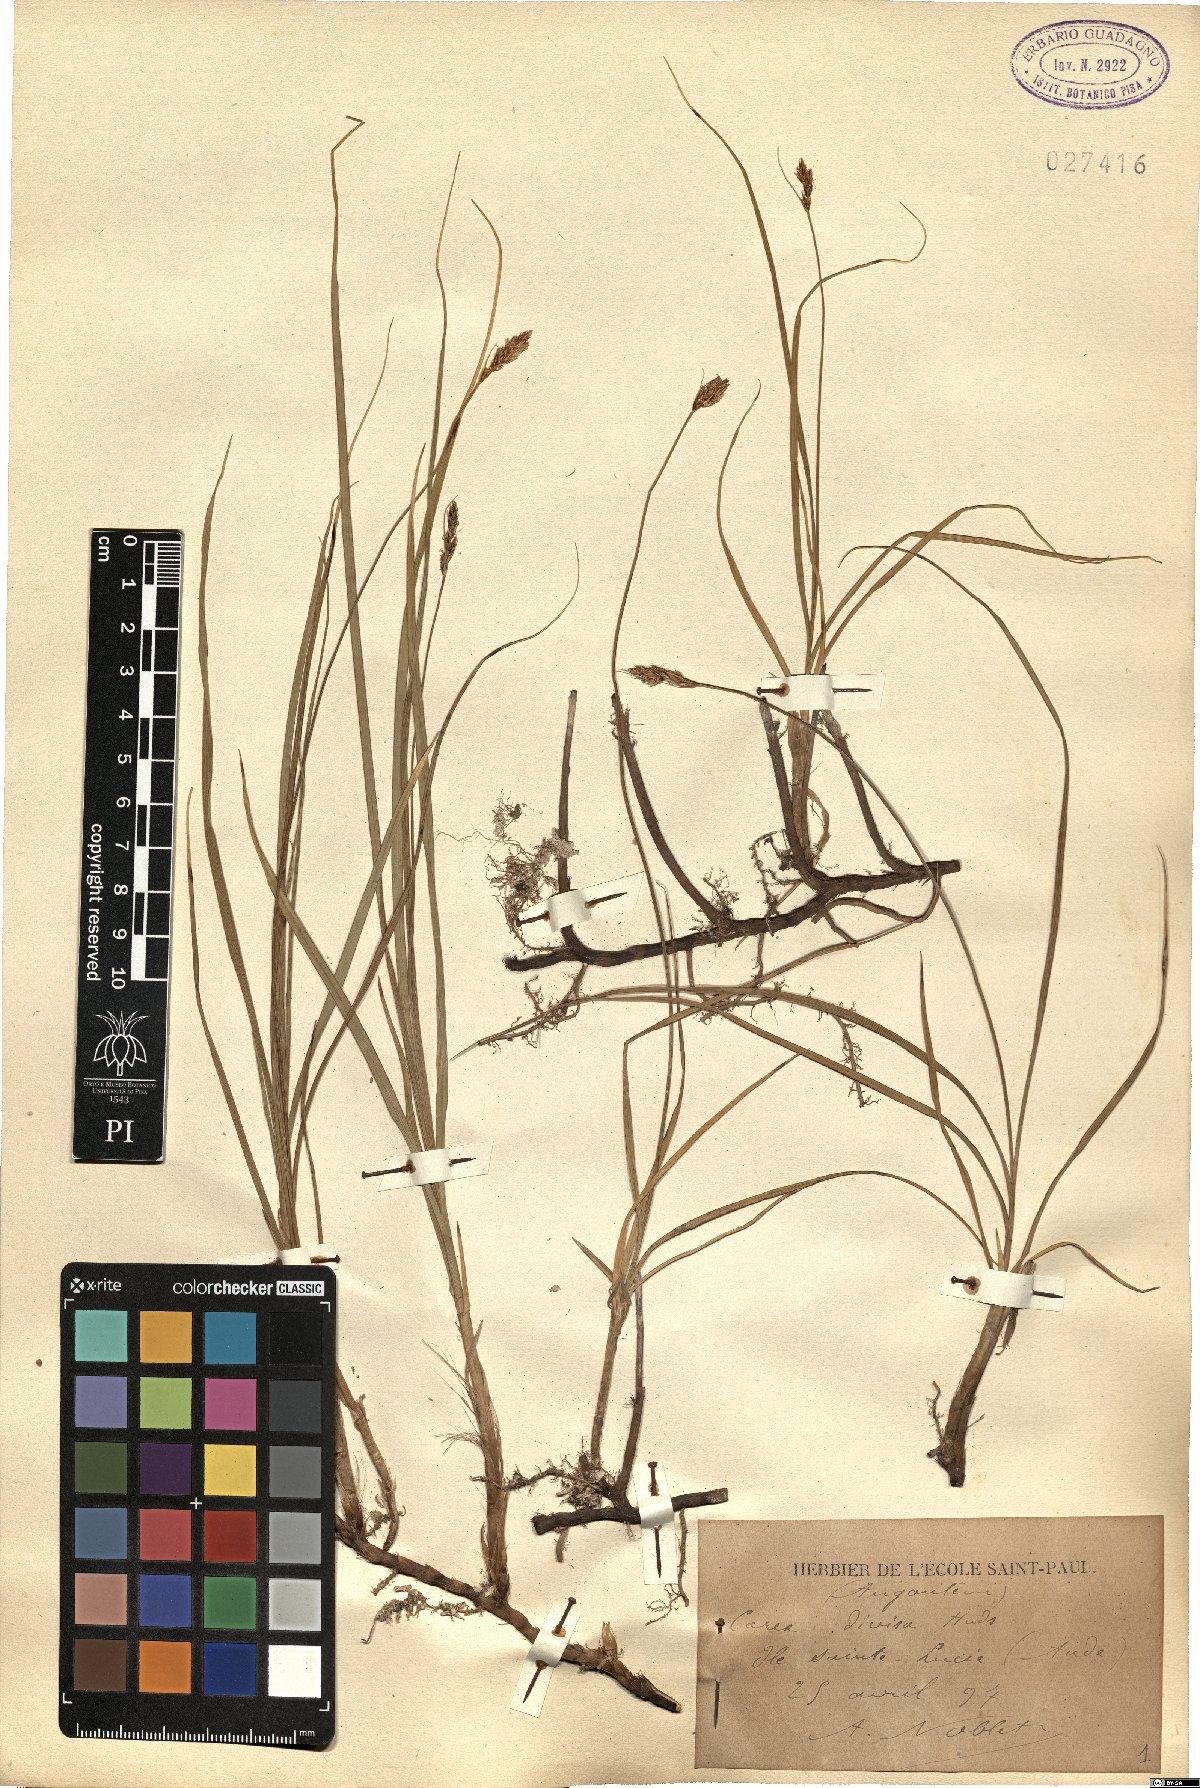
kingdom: Plantae
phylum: Tracheophyta
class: Liliopsida
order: Poales
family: Cyperaceae
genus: Carex
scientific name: Carex divisa
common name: Divided sedge
